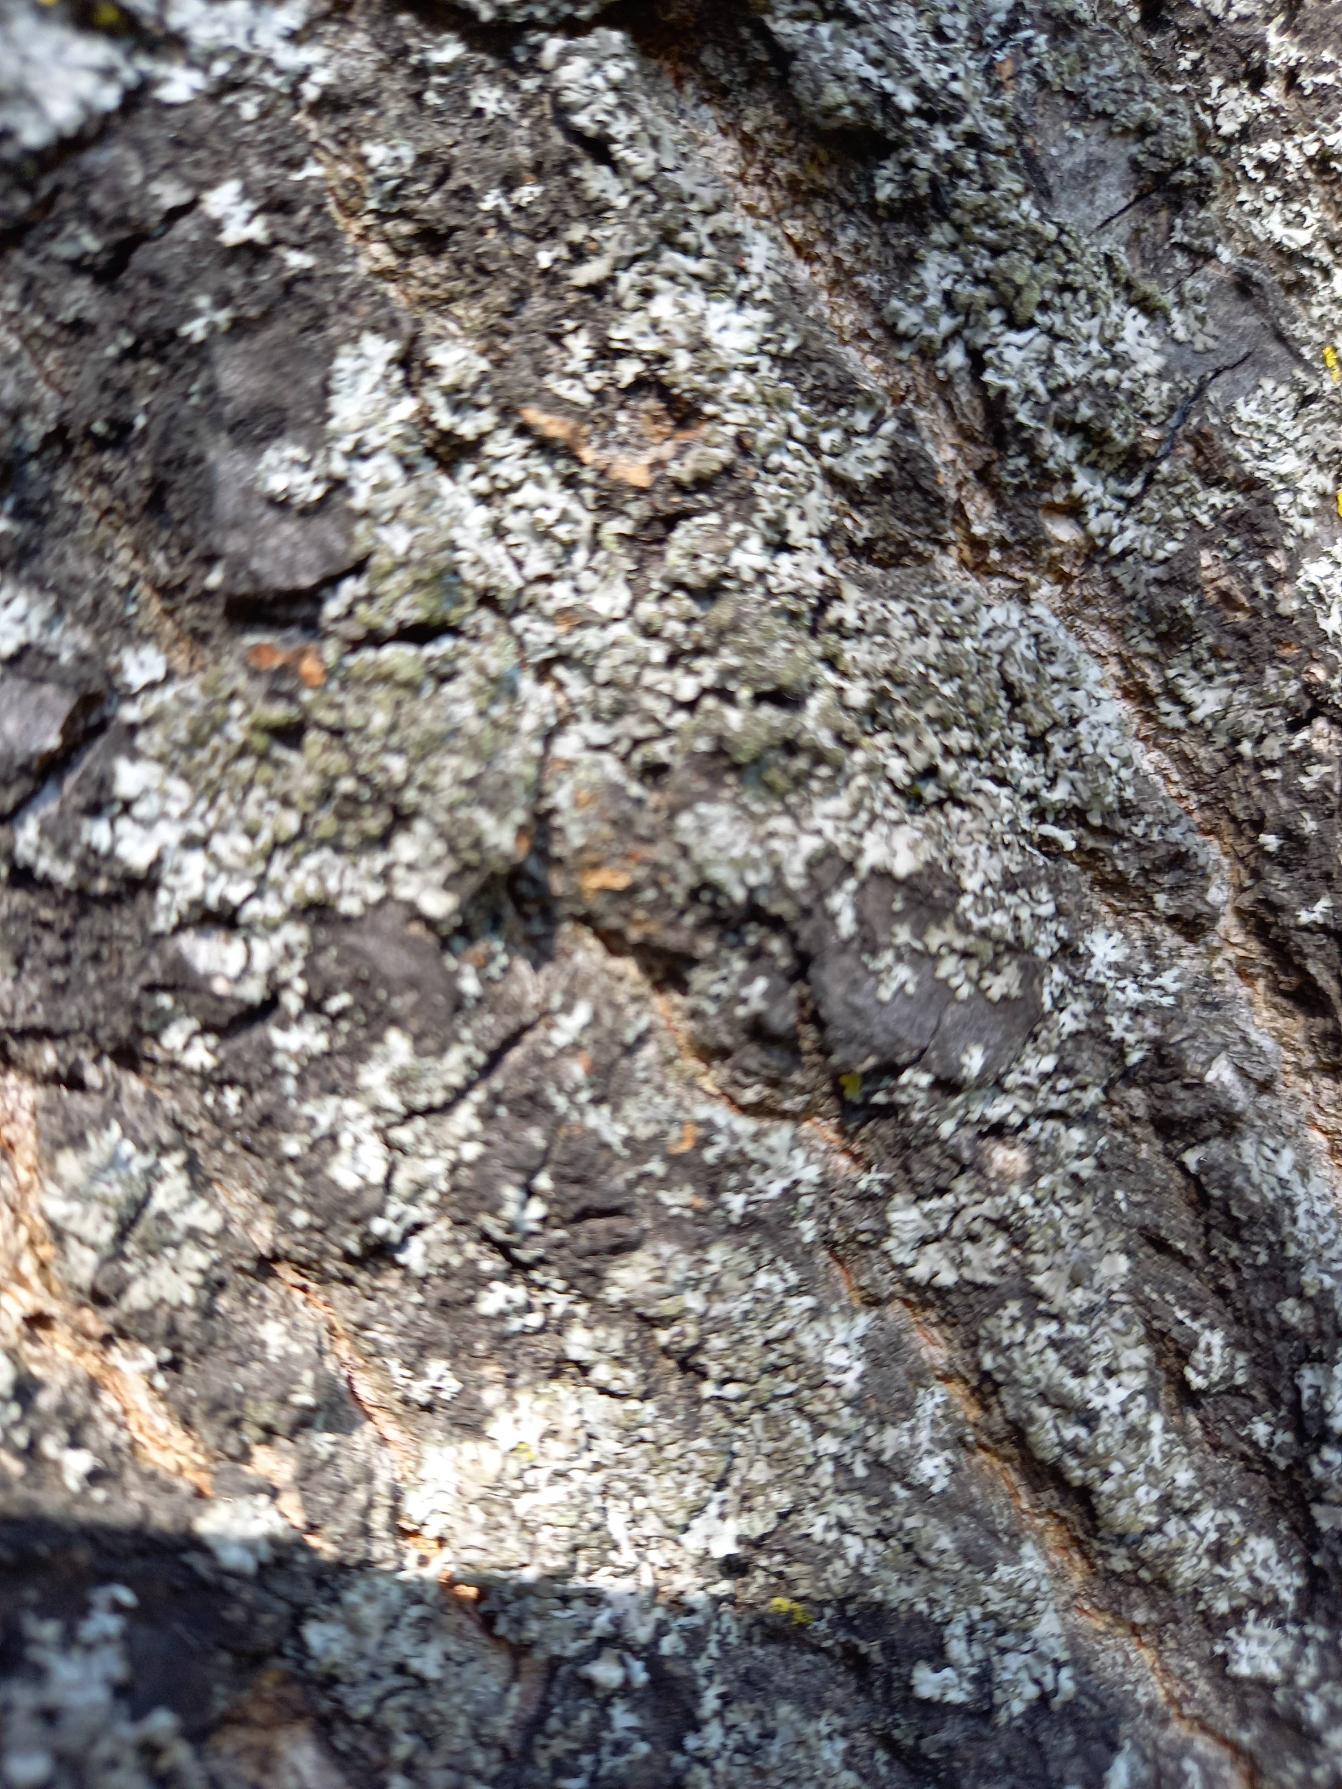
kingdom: Fungi
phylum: Ascomycota
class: Lecanoromycetes
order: Caliciales
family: Physciaceae
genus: Phaeophyscia
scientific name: Phaeophyscia
